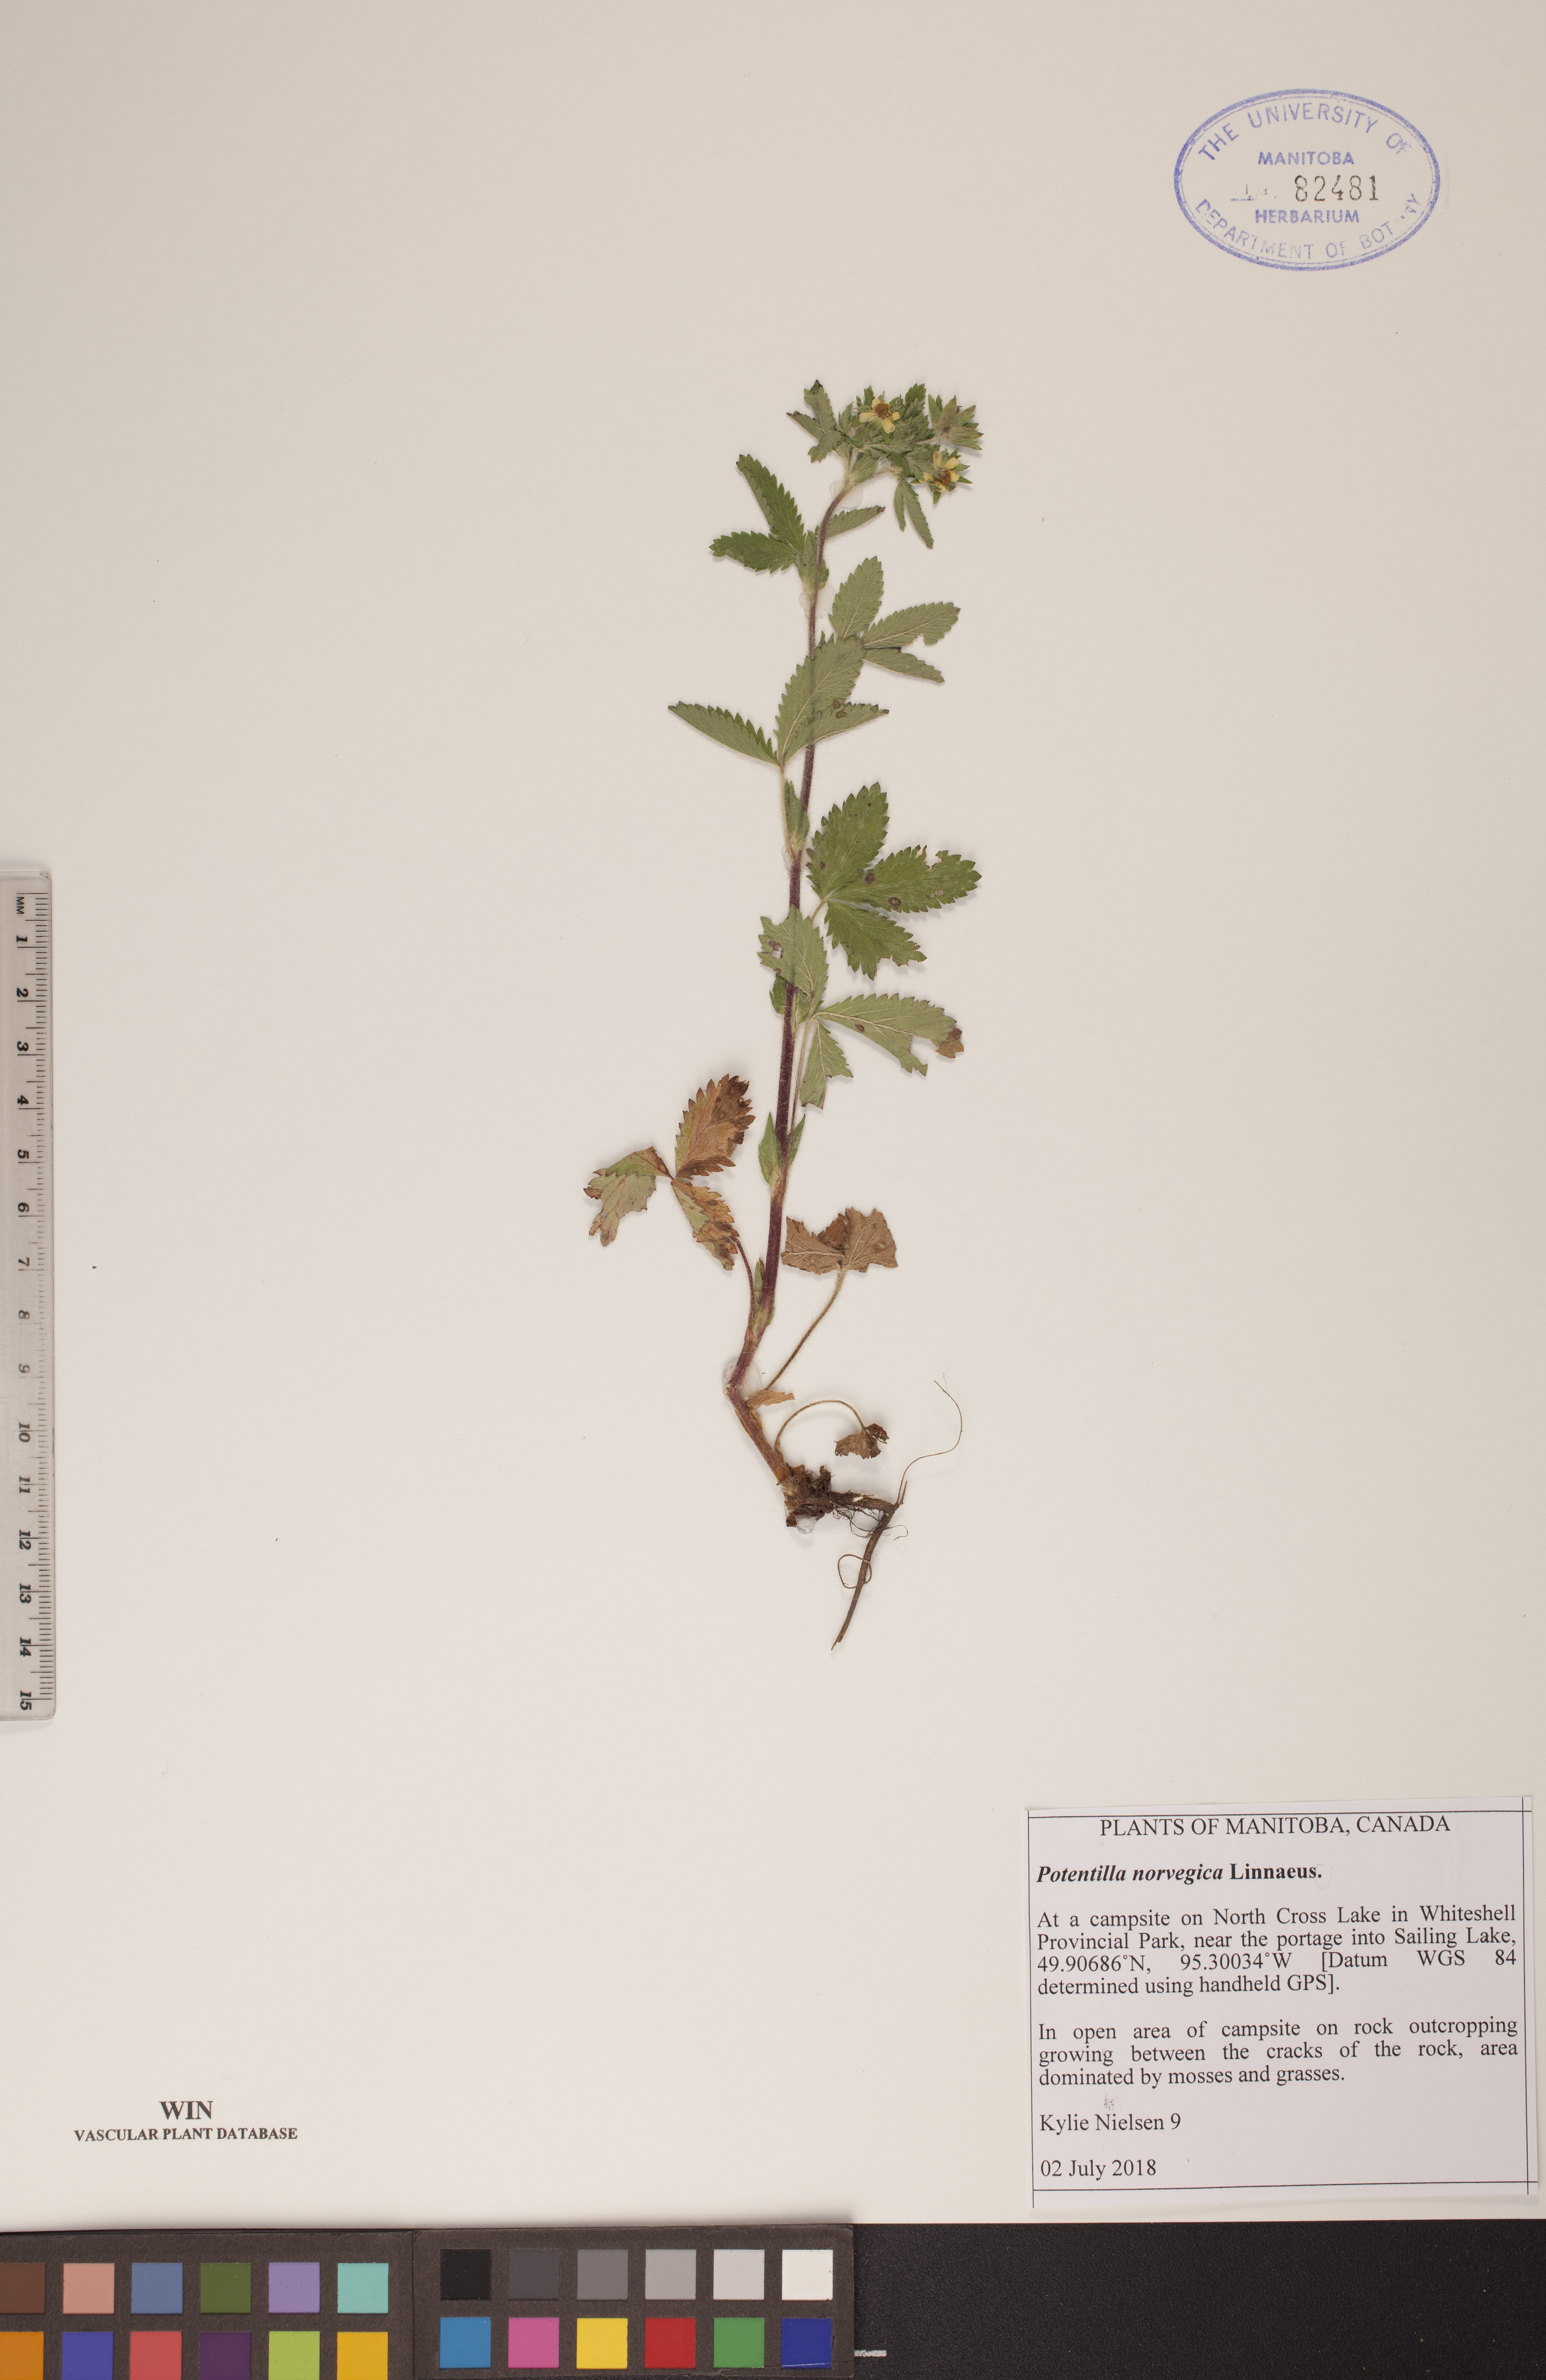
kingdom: Plantae
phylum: Tracheophyta
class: Magnoliopsida
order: Rosales
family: Rosaceae
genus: Potentilla
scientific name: Potentilla norvegica
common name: Ternate-leaved cinquefoil
